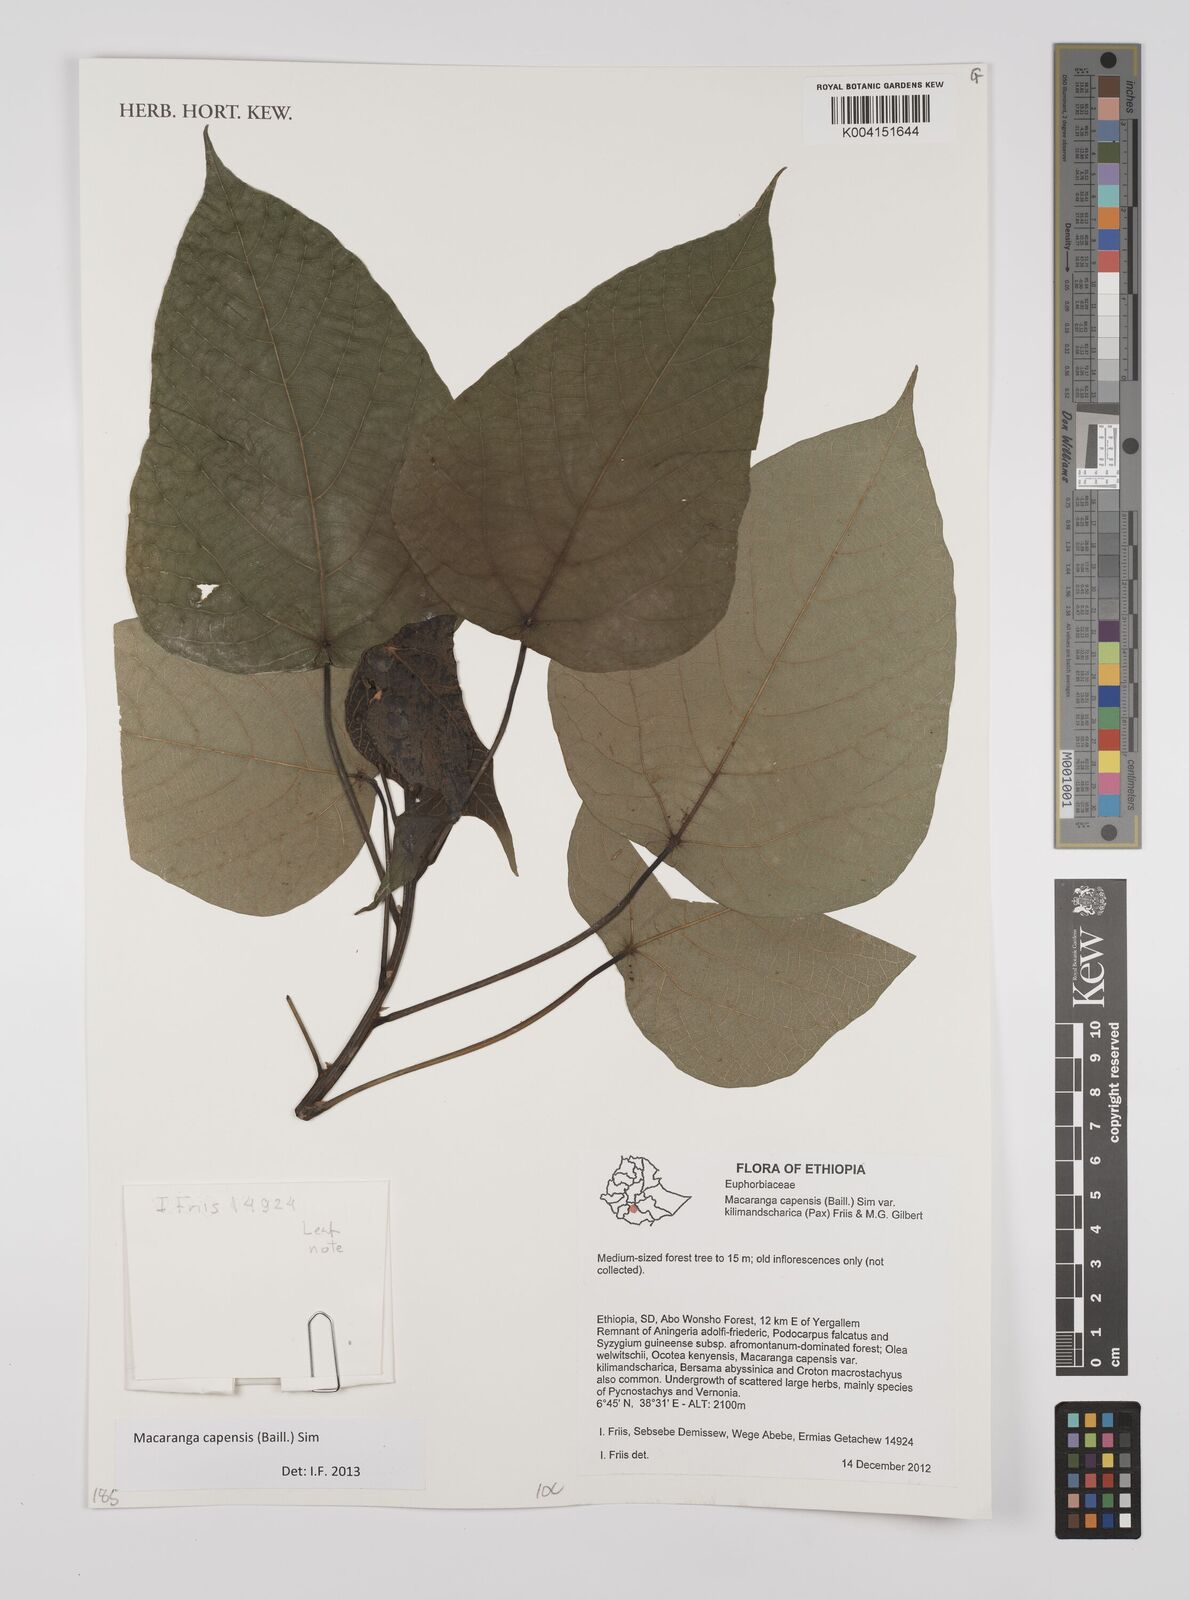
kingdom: Plantae
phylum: Tracheophyta
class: Magnoliopsida
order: Malpighiales
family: Euphorbiaceae
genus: Macaranga
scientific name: Macaranga capensis
